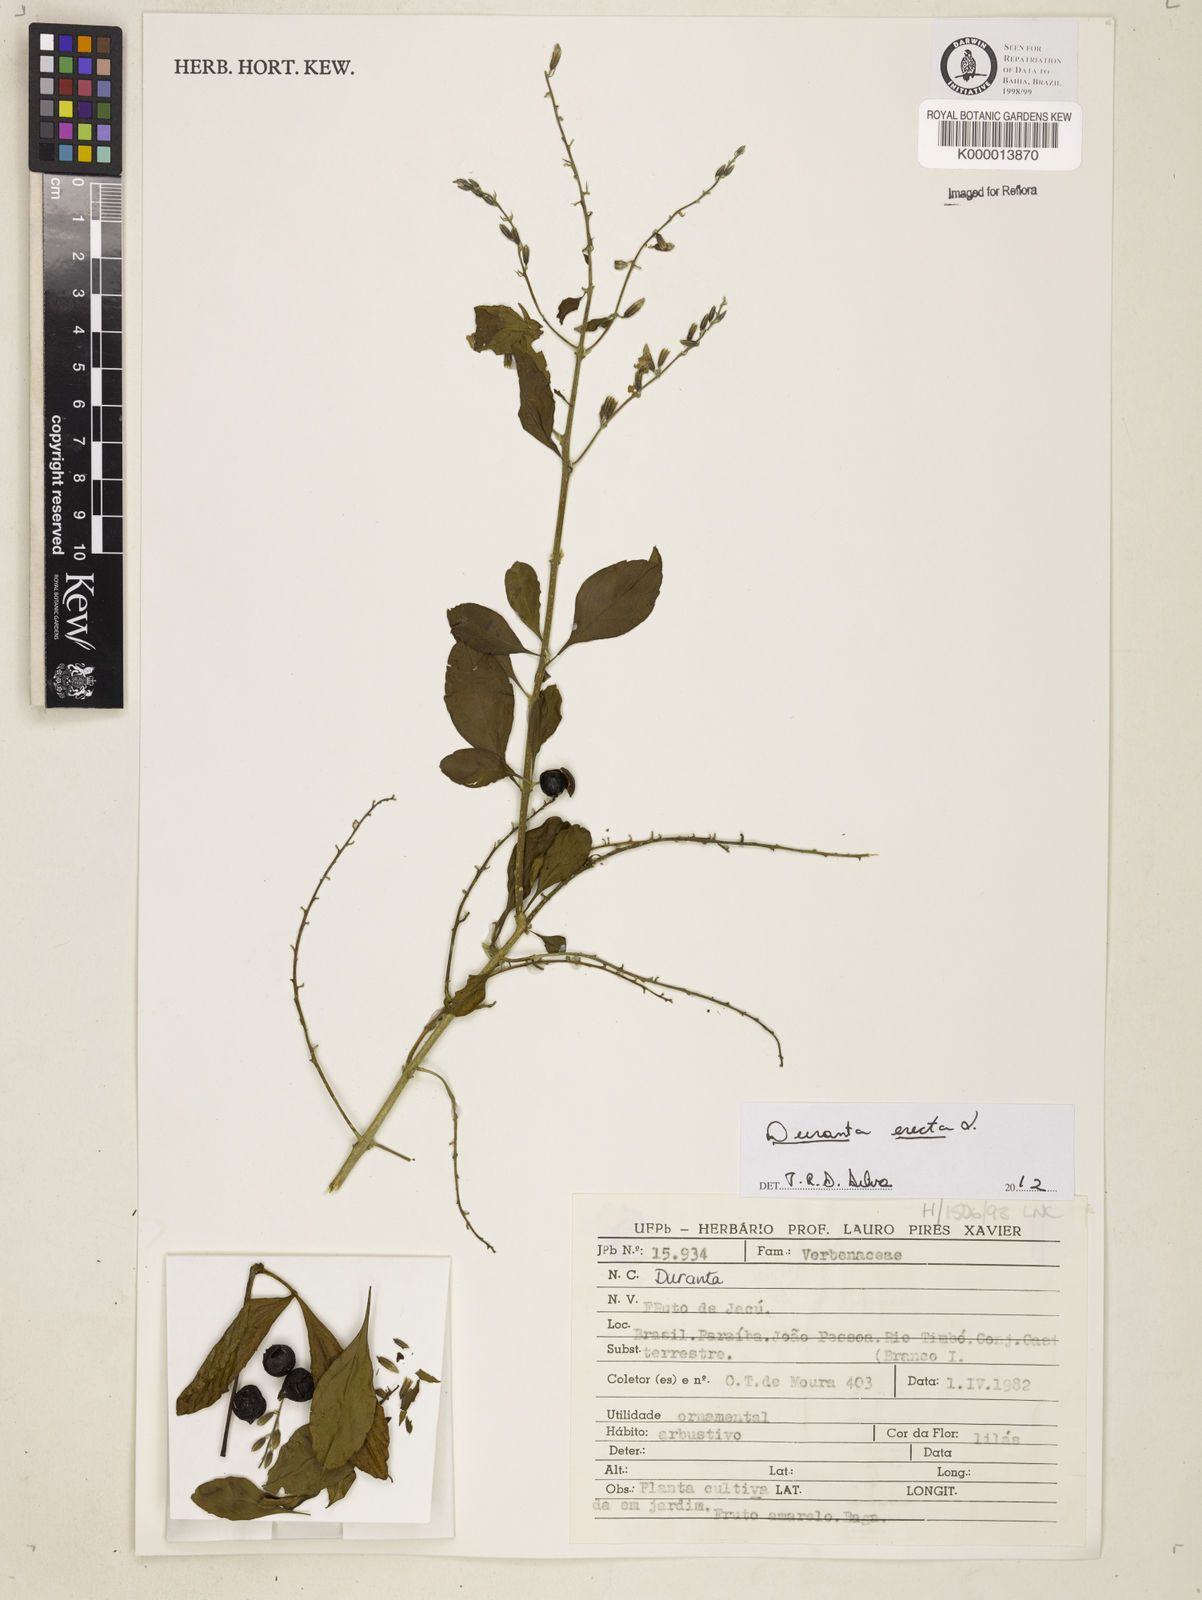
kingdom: Plantae
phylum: Tracheophyta
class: Magnoliopsida
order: Lamiales
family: Verbenaceae
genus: Duranta
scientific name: Duranta erecta
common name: Golden dewdrops
